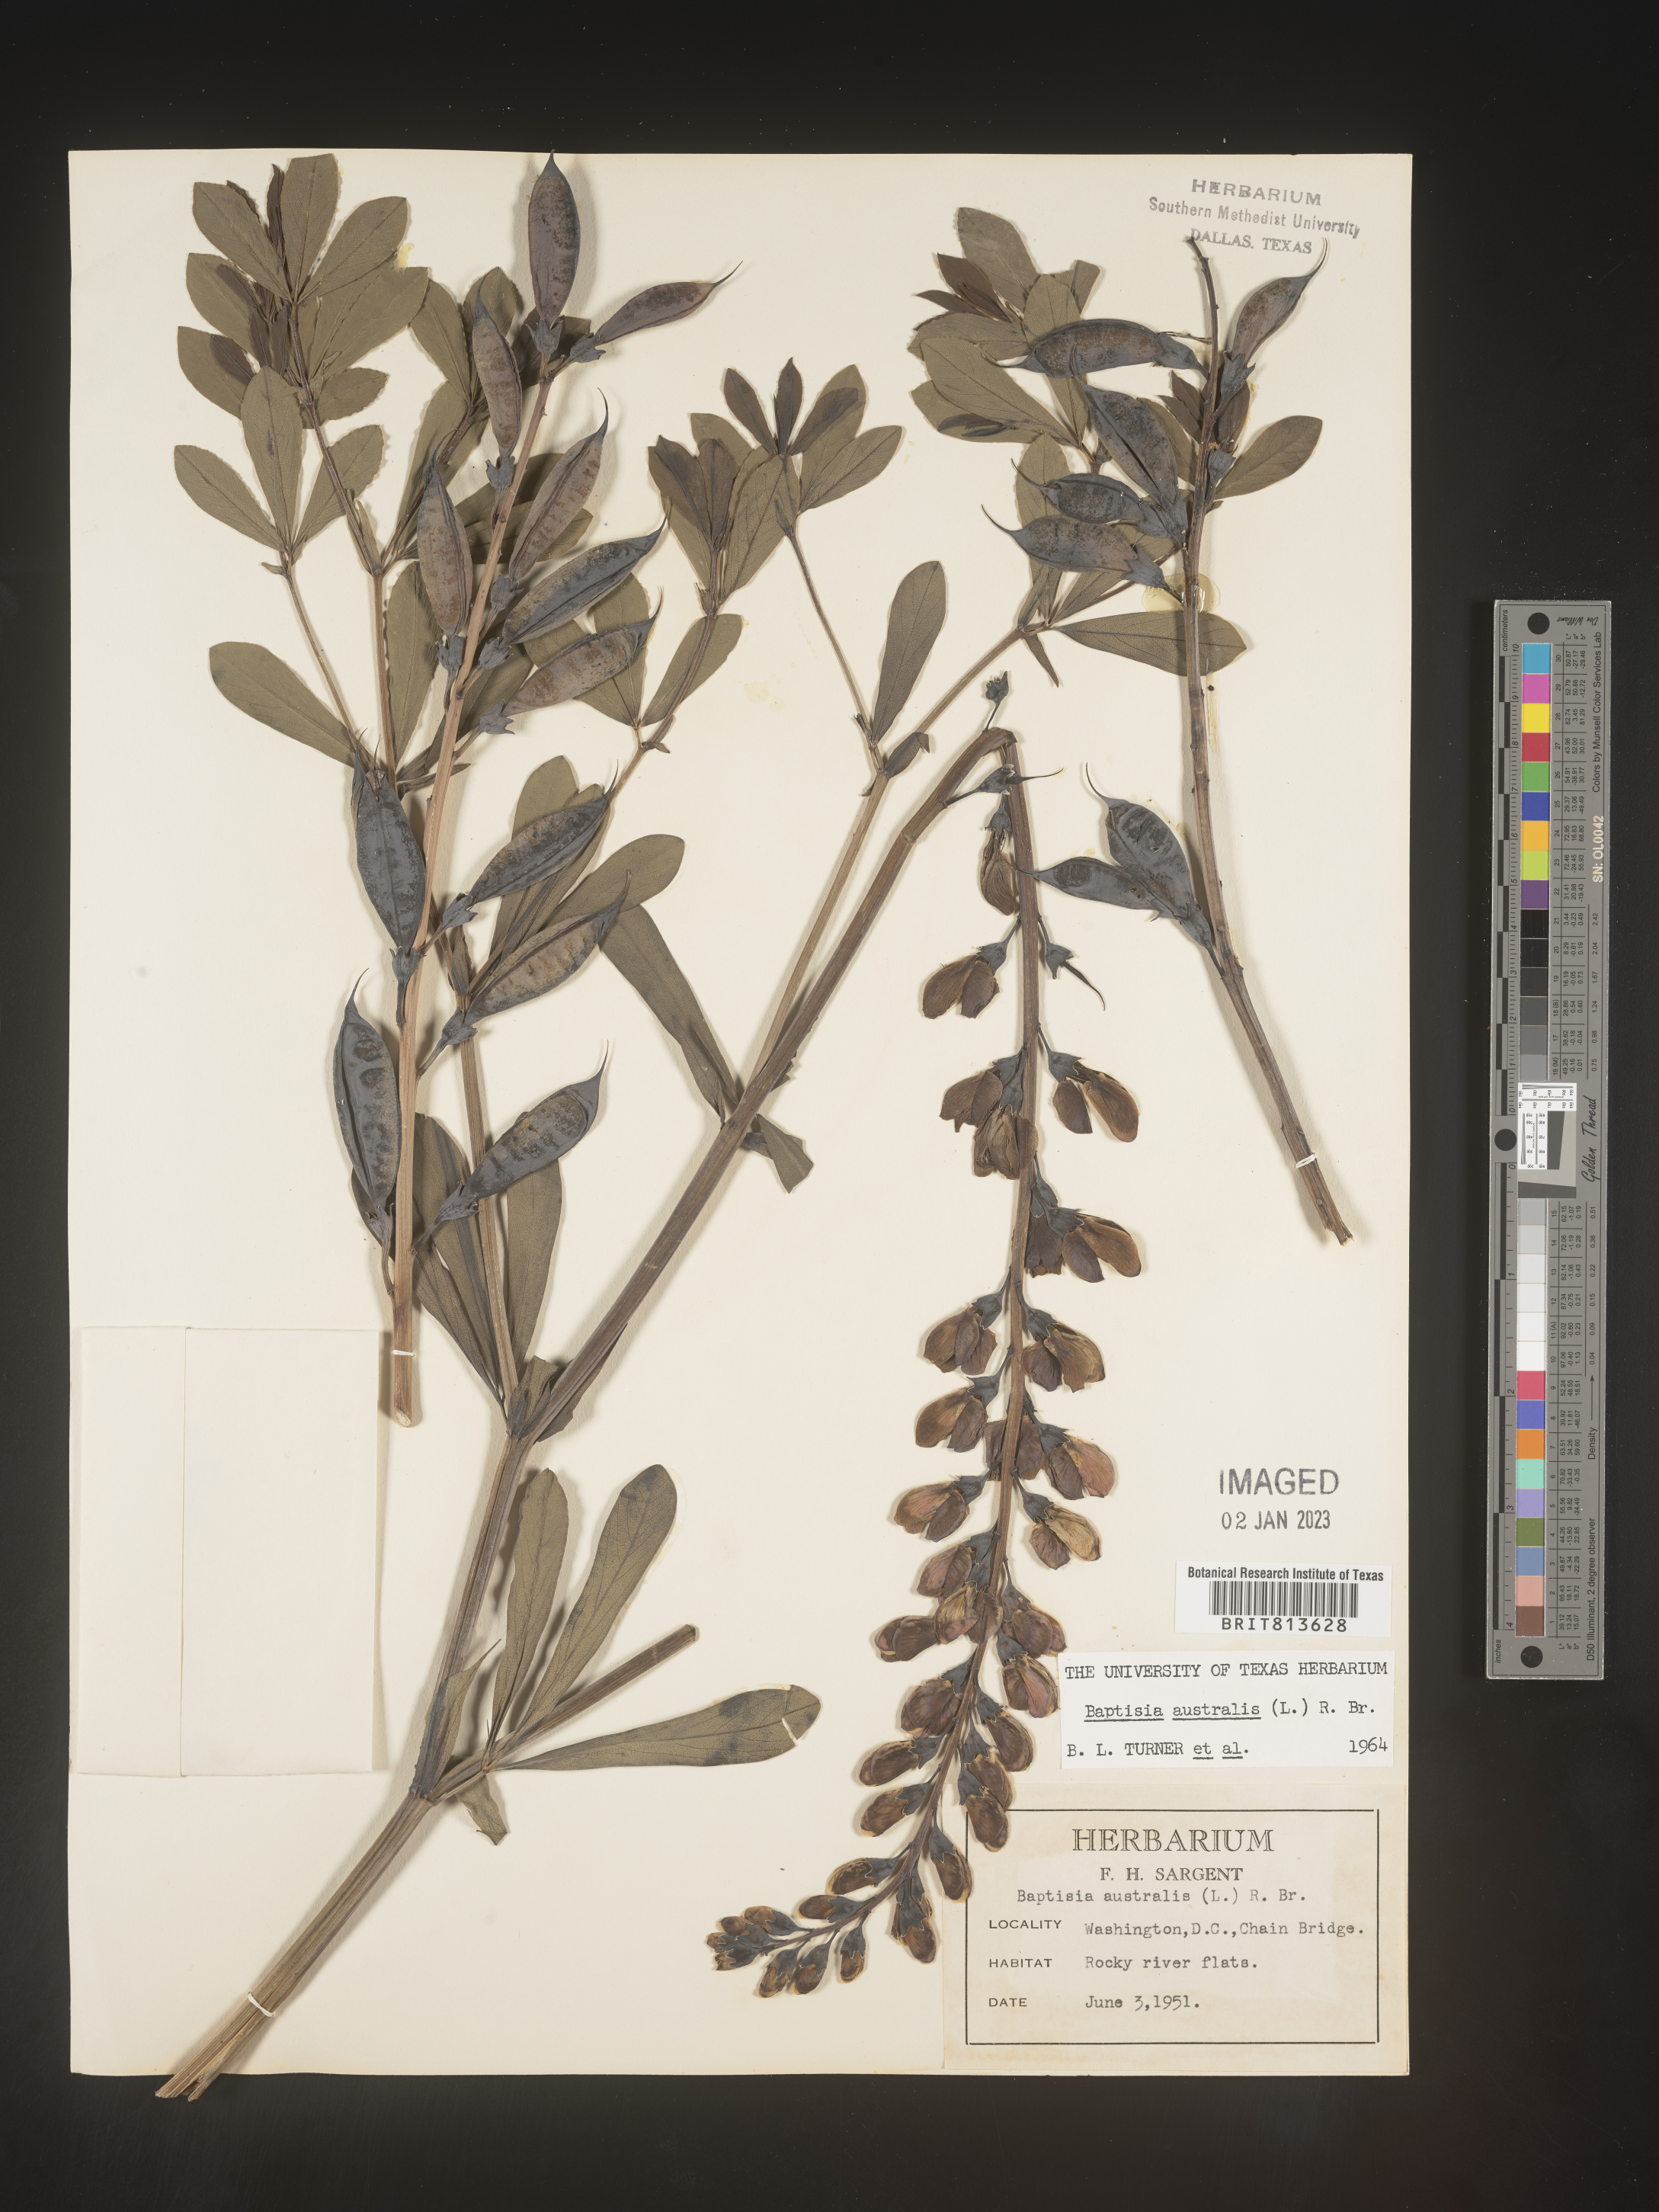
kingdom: Plantae
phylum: Tracheophyta
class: Magnoliopsida
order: Fabales
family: Fabaceae
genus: Baptisia
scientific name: Baptisia australis
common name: Blue false indigo
